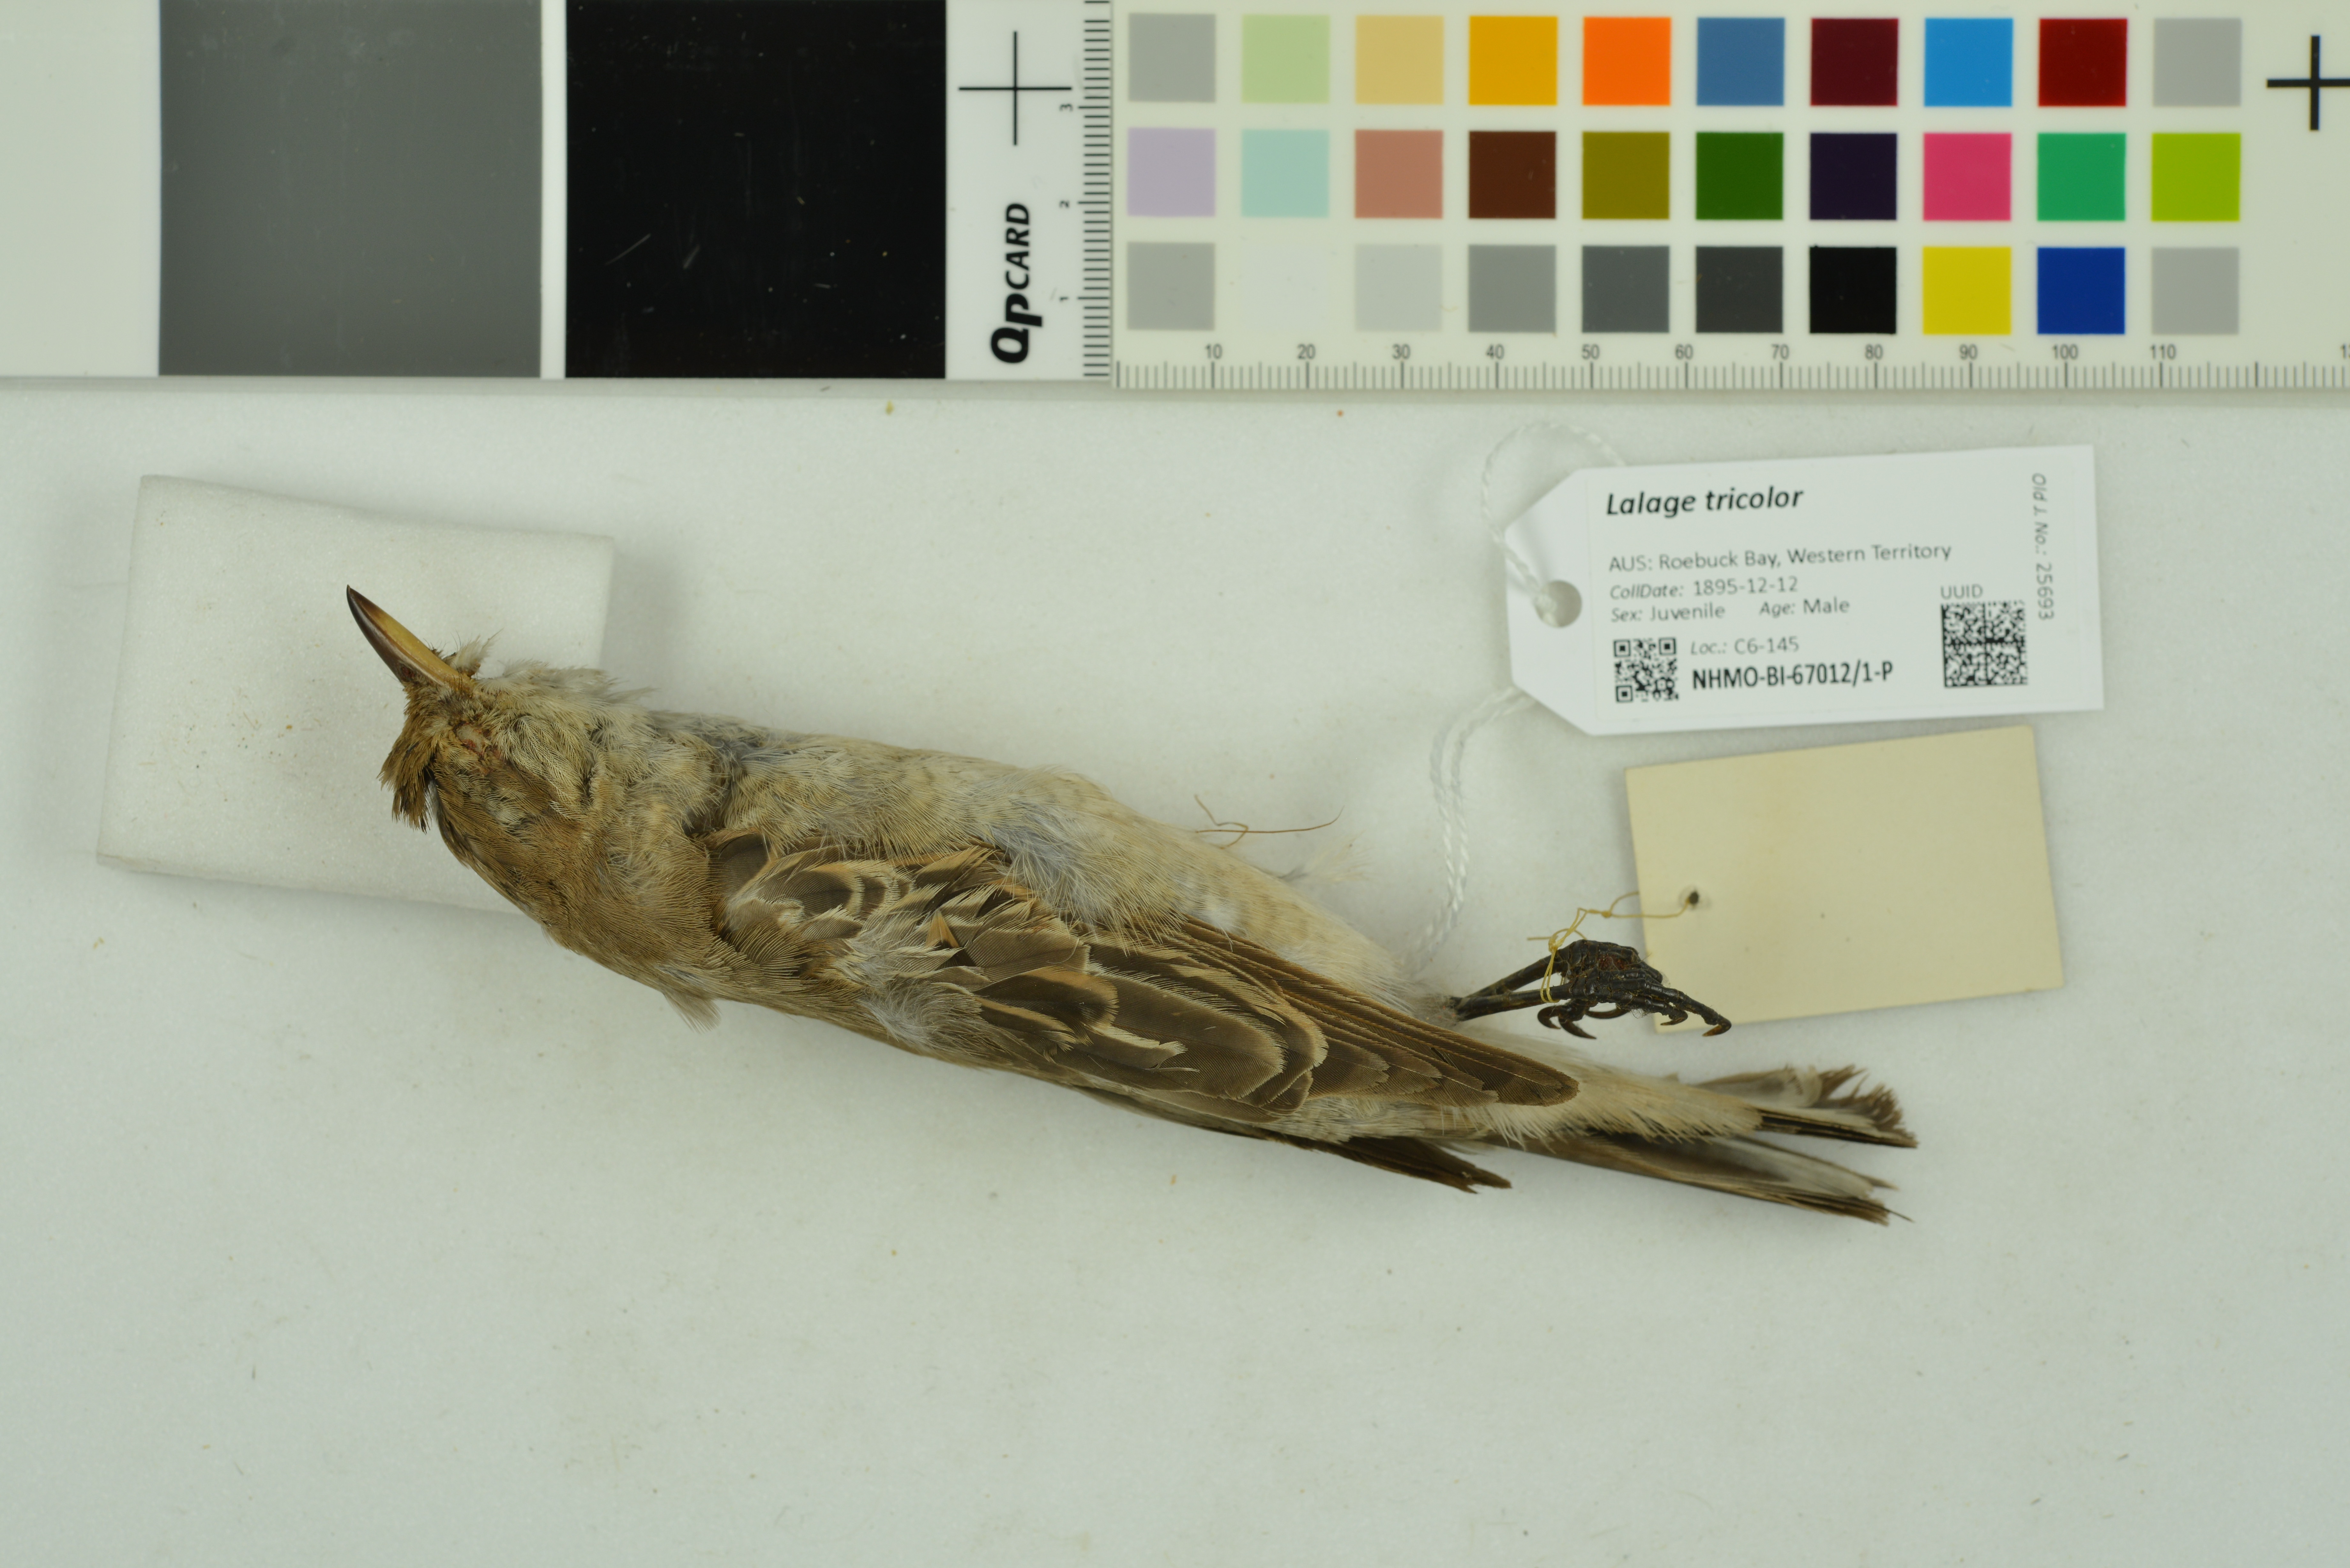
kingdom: Animalia
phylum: Chordata
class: Aves
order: Passeriformes
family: Campephagidae
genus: Lalage
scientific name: Lalage tricolor
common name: White-winged triller
